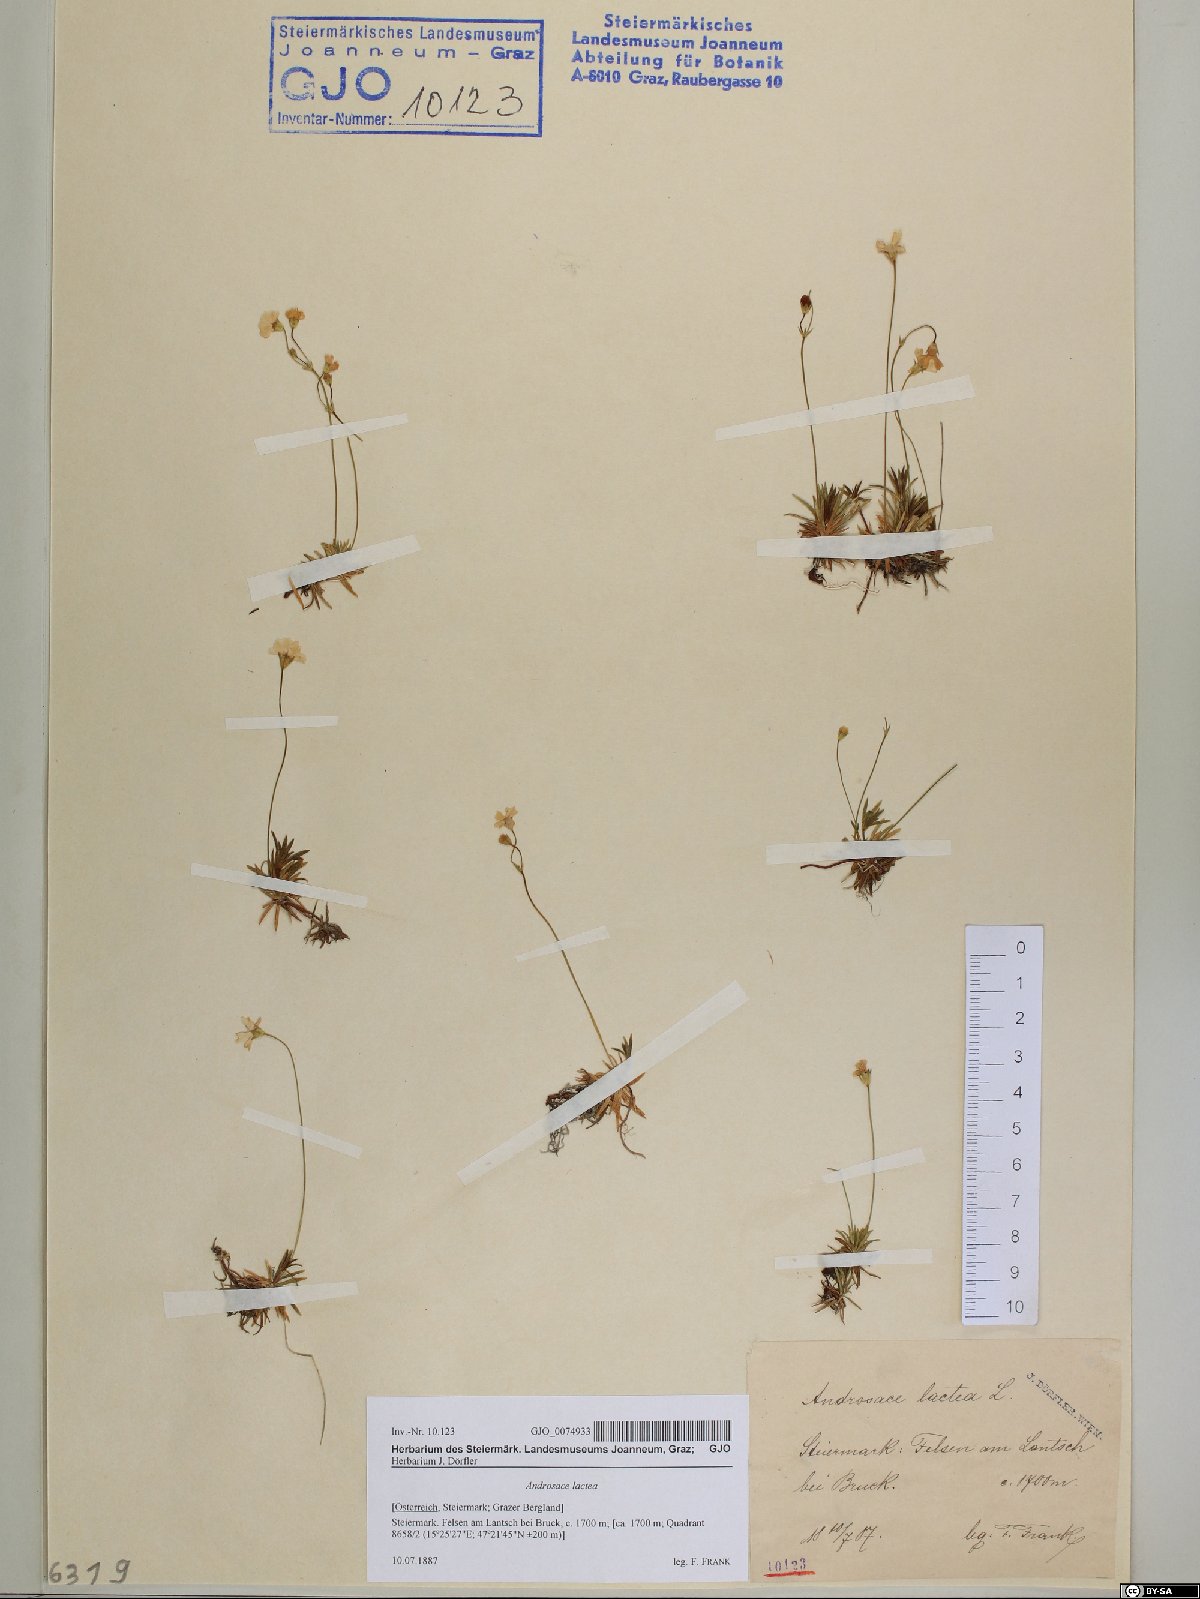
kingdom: Plantae
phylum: Tracheophyta
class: Magnoliopsida
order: Ericales
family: Primulaceae
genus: Androsace
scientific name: Androsace lactea
